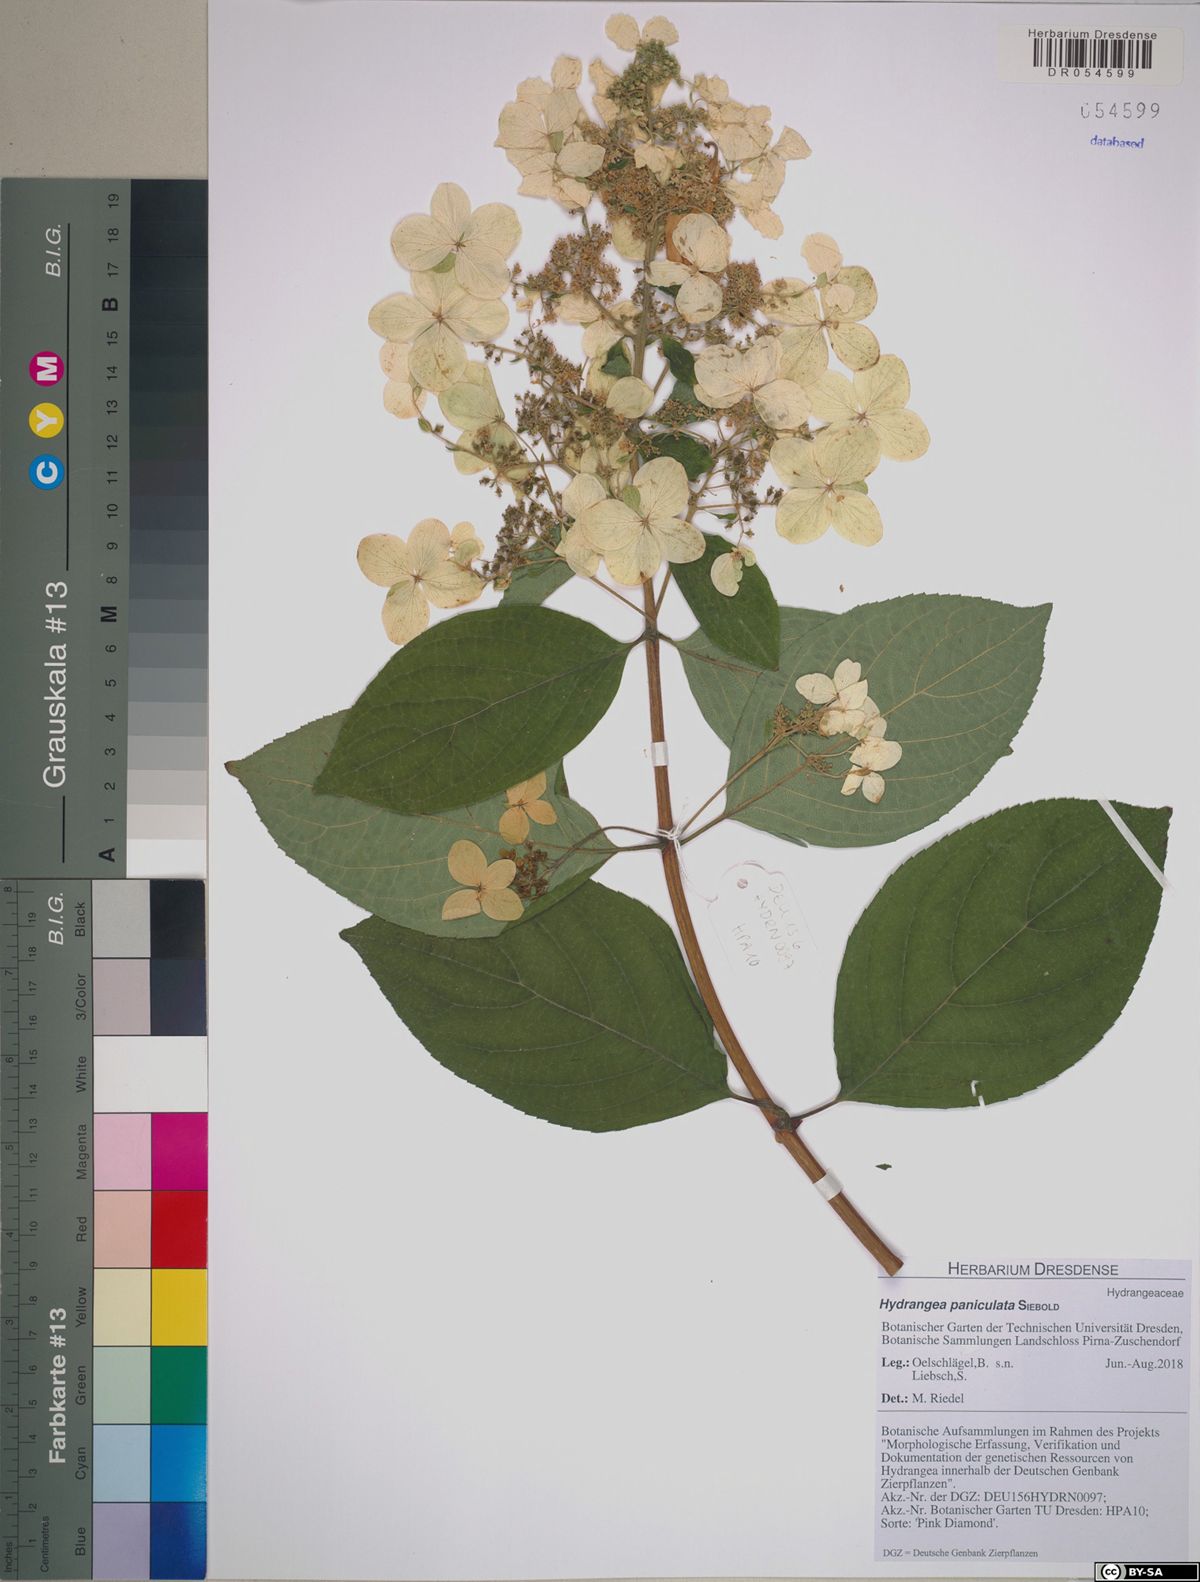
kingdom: Plantae
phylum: Tracheophyta
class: Magnoliopsida
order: Cornales
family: Hydrangeaceae
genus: Hydrangea
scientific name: Hydrangea paniculata
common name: Panicled hydrangea
